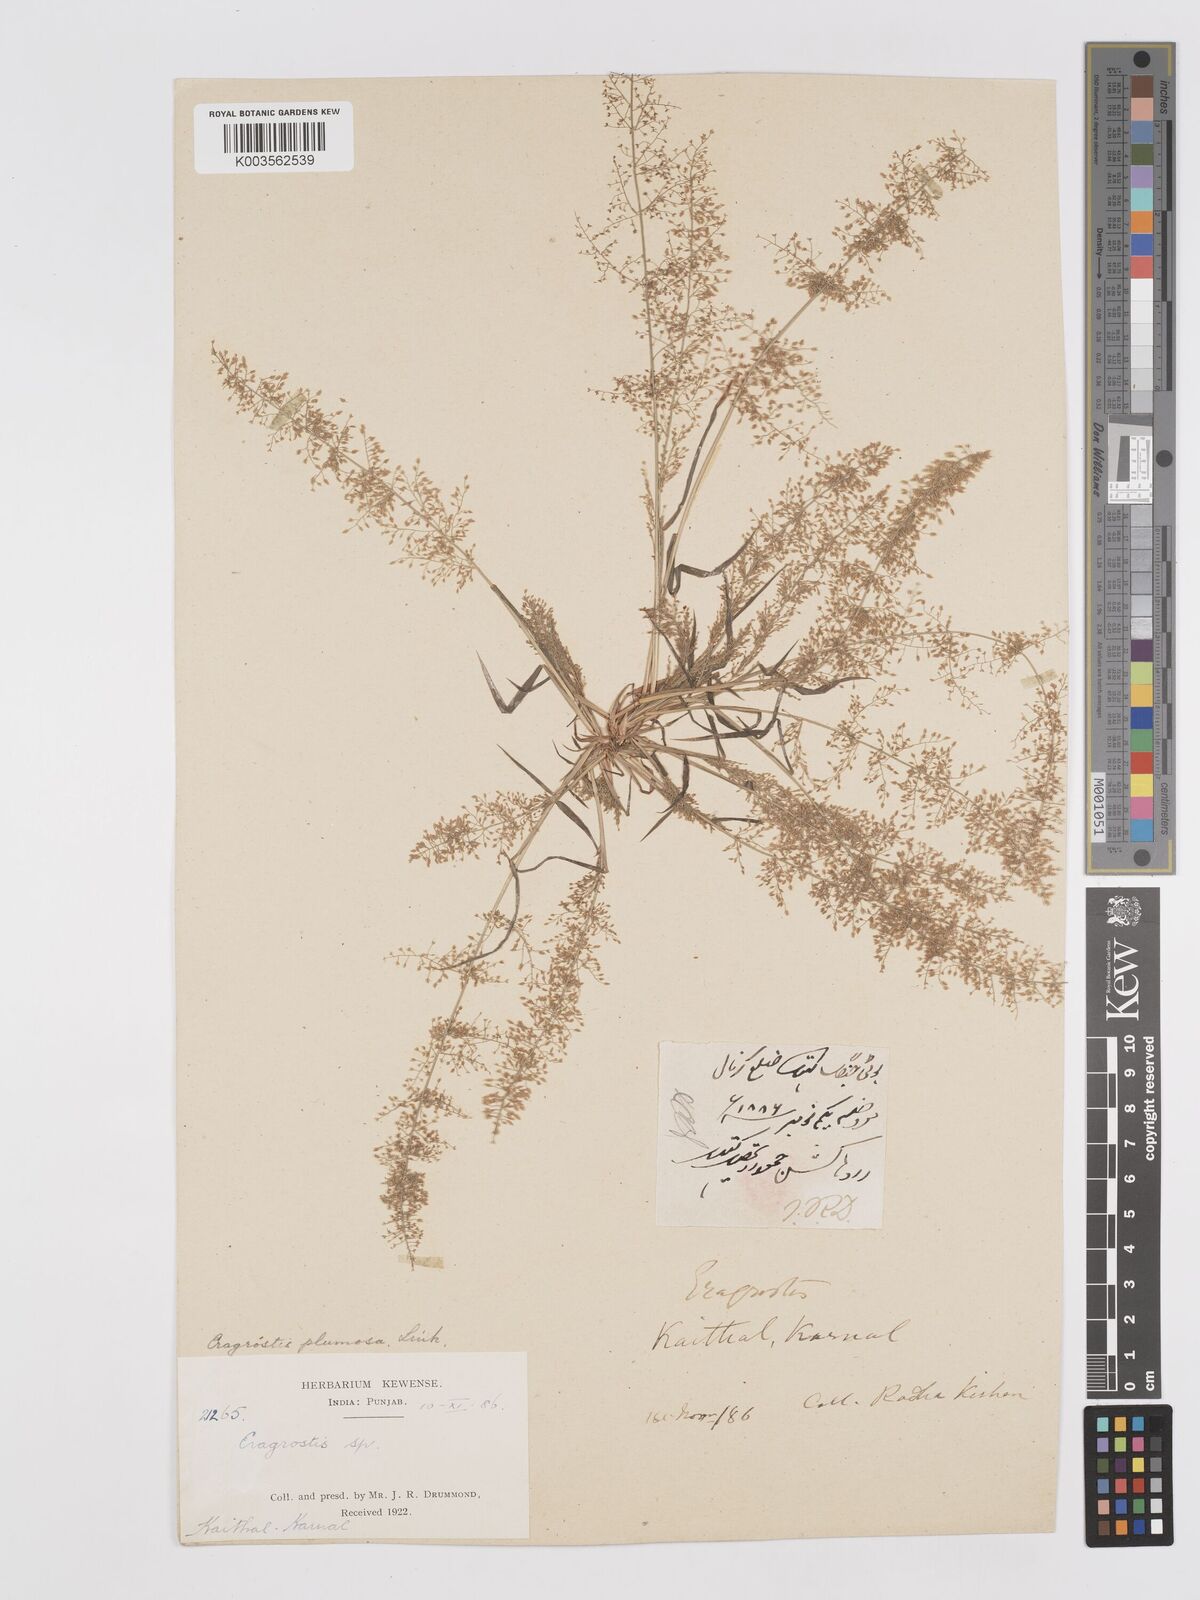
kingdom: Plantae
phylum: Tracheophyta
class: Liliopsida
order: Poales
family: Poaceae
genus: Eragrostis
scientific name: Eragrostis tenella
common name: Japanese lovegrass
